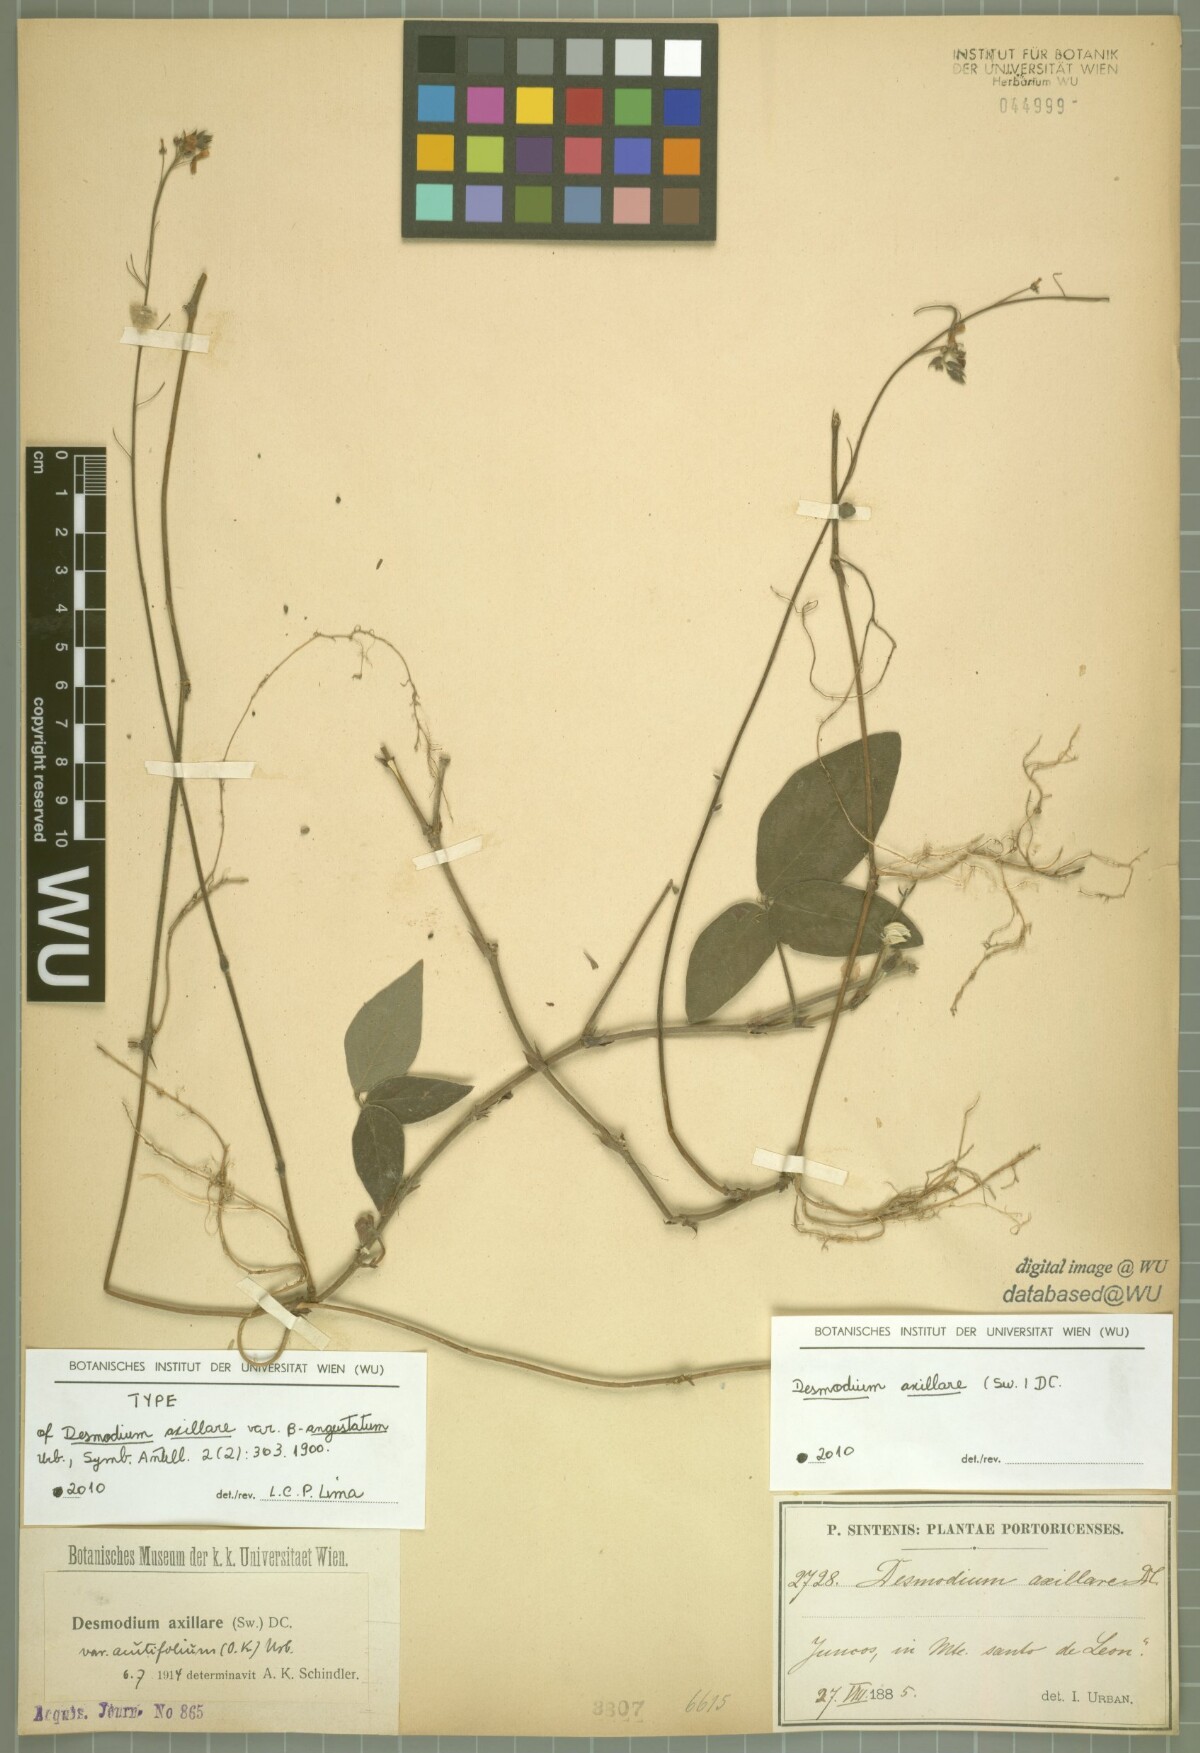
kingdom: Plantae
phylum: Tracheophyta
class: Magnoliopsida
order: Fabales
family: Fabaceae
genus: Desmodium
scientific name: Desmodium axillare
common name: Wire with
